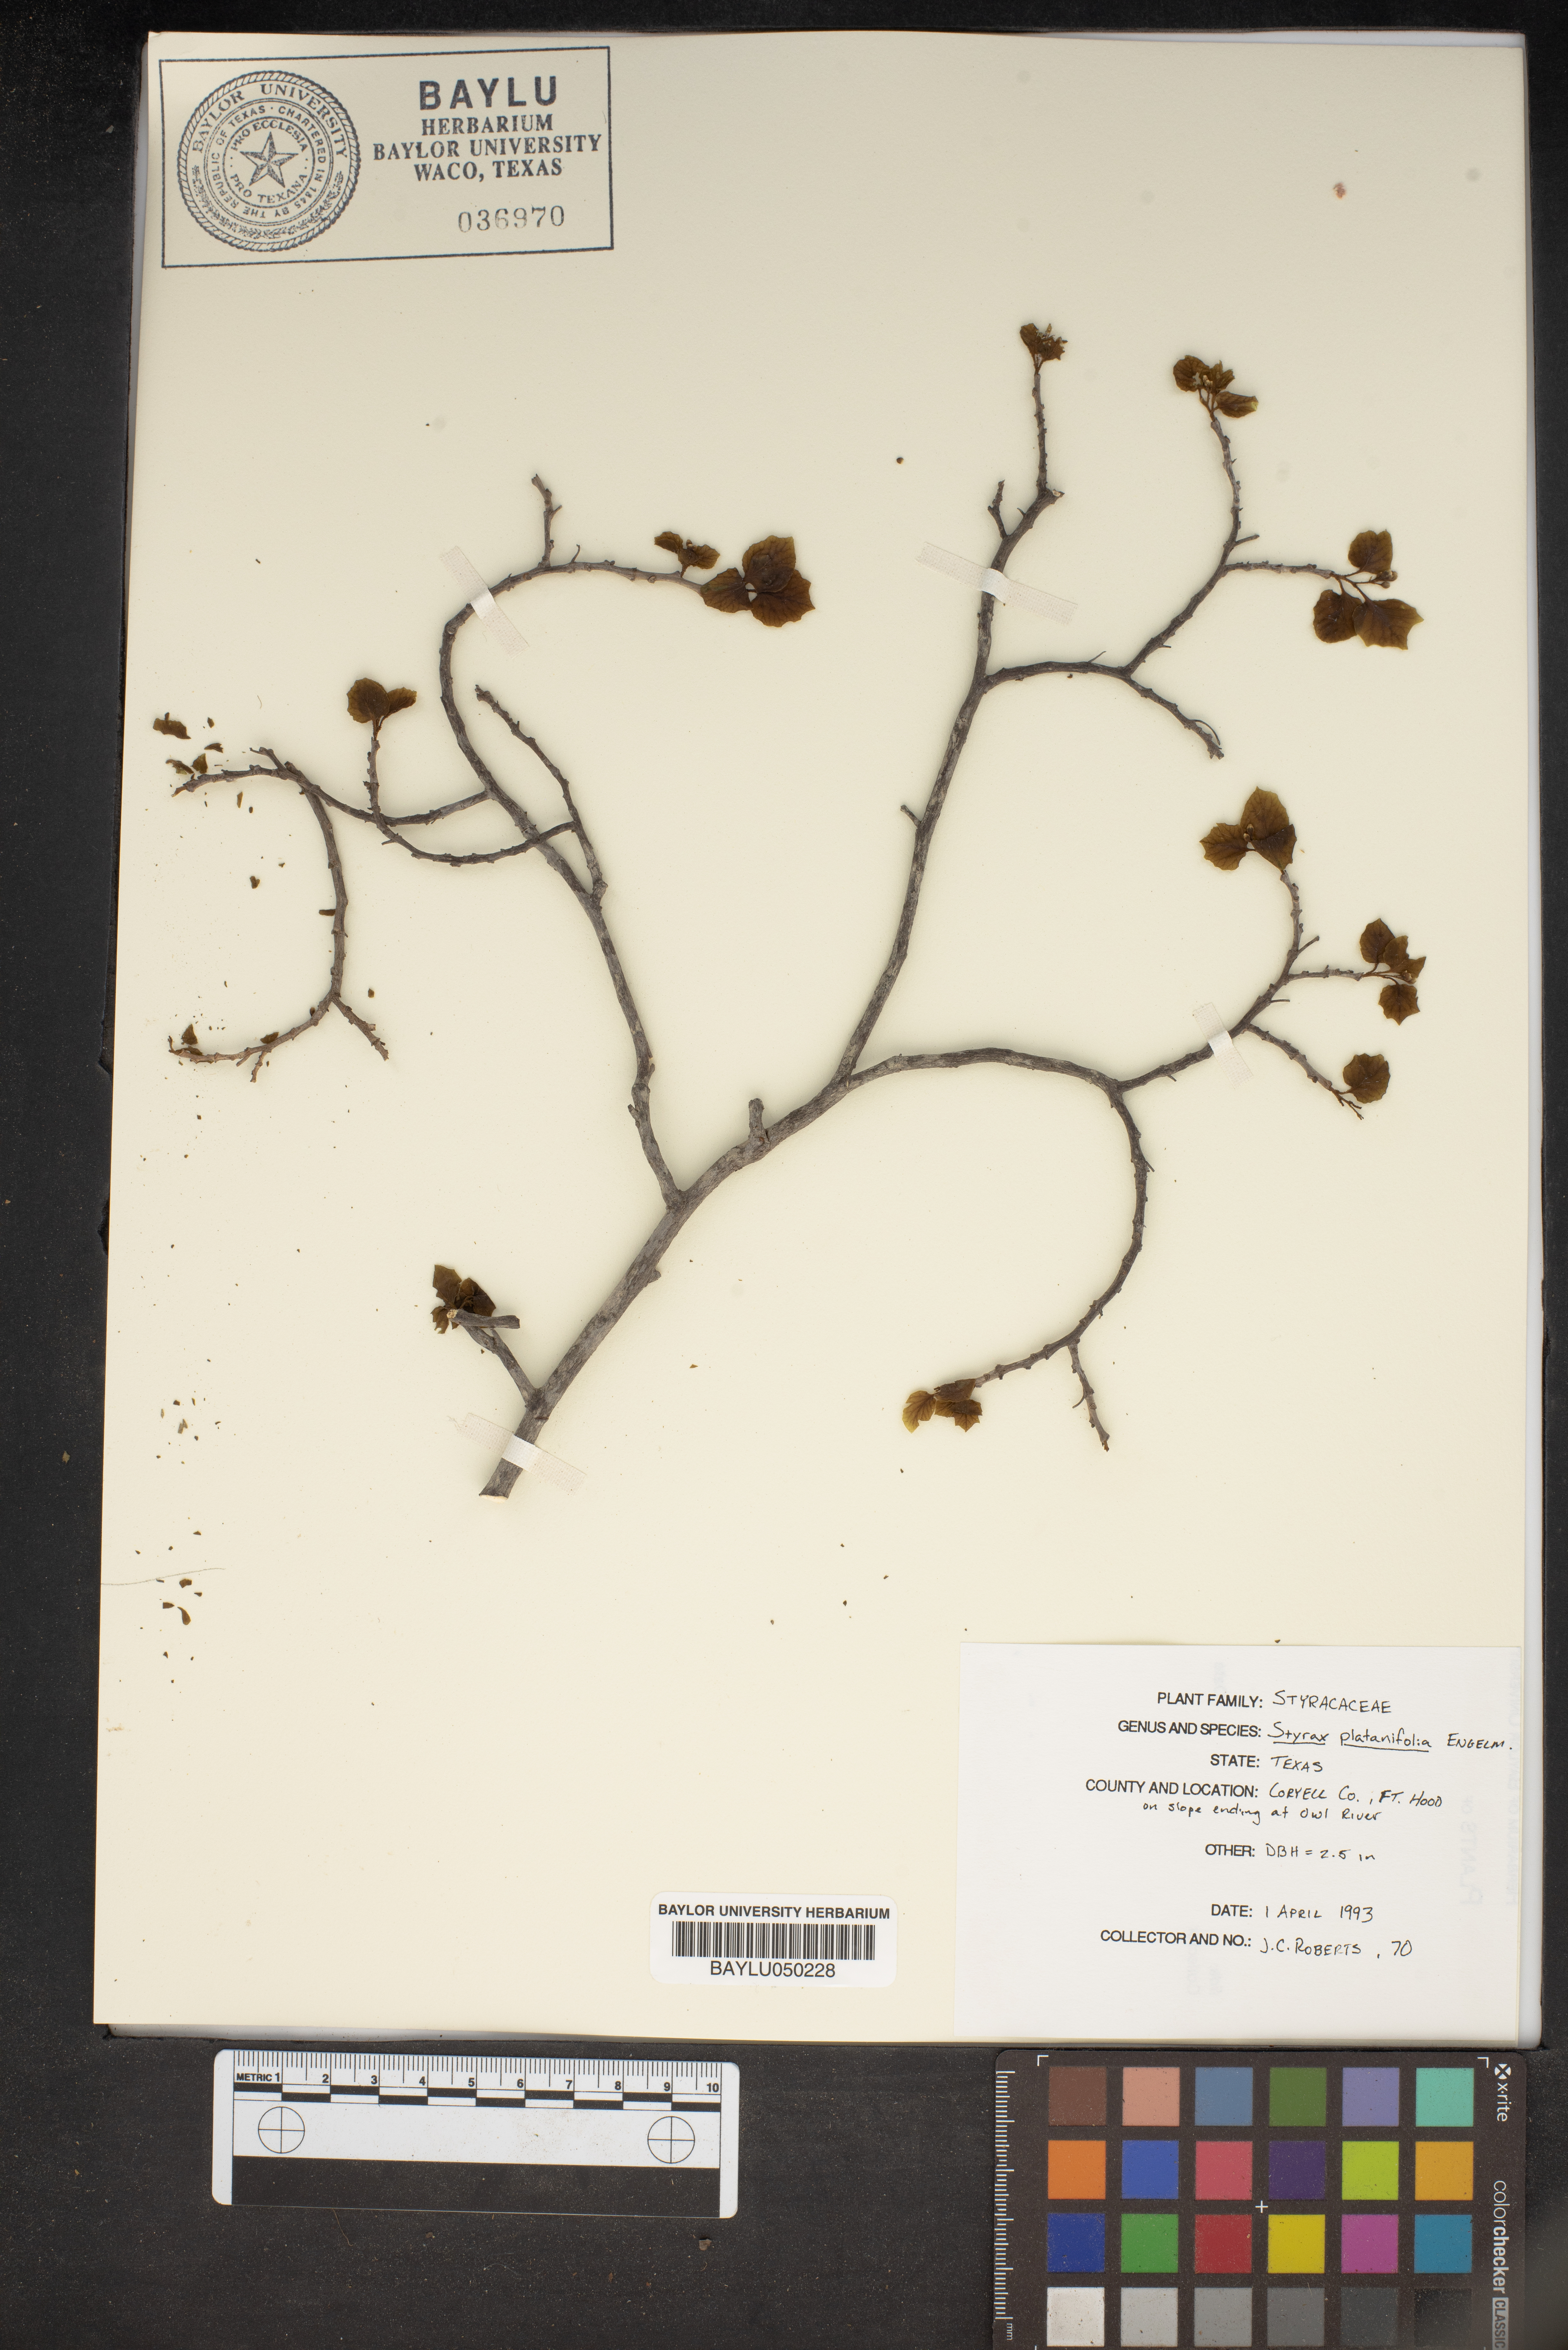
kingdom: Plantae
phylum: Tracheophyta
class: Magnoliopsida
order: Ericales
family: Styracaceae
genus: Styrax
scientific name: Styrax platanifolius
